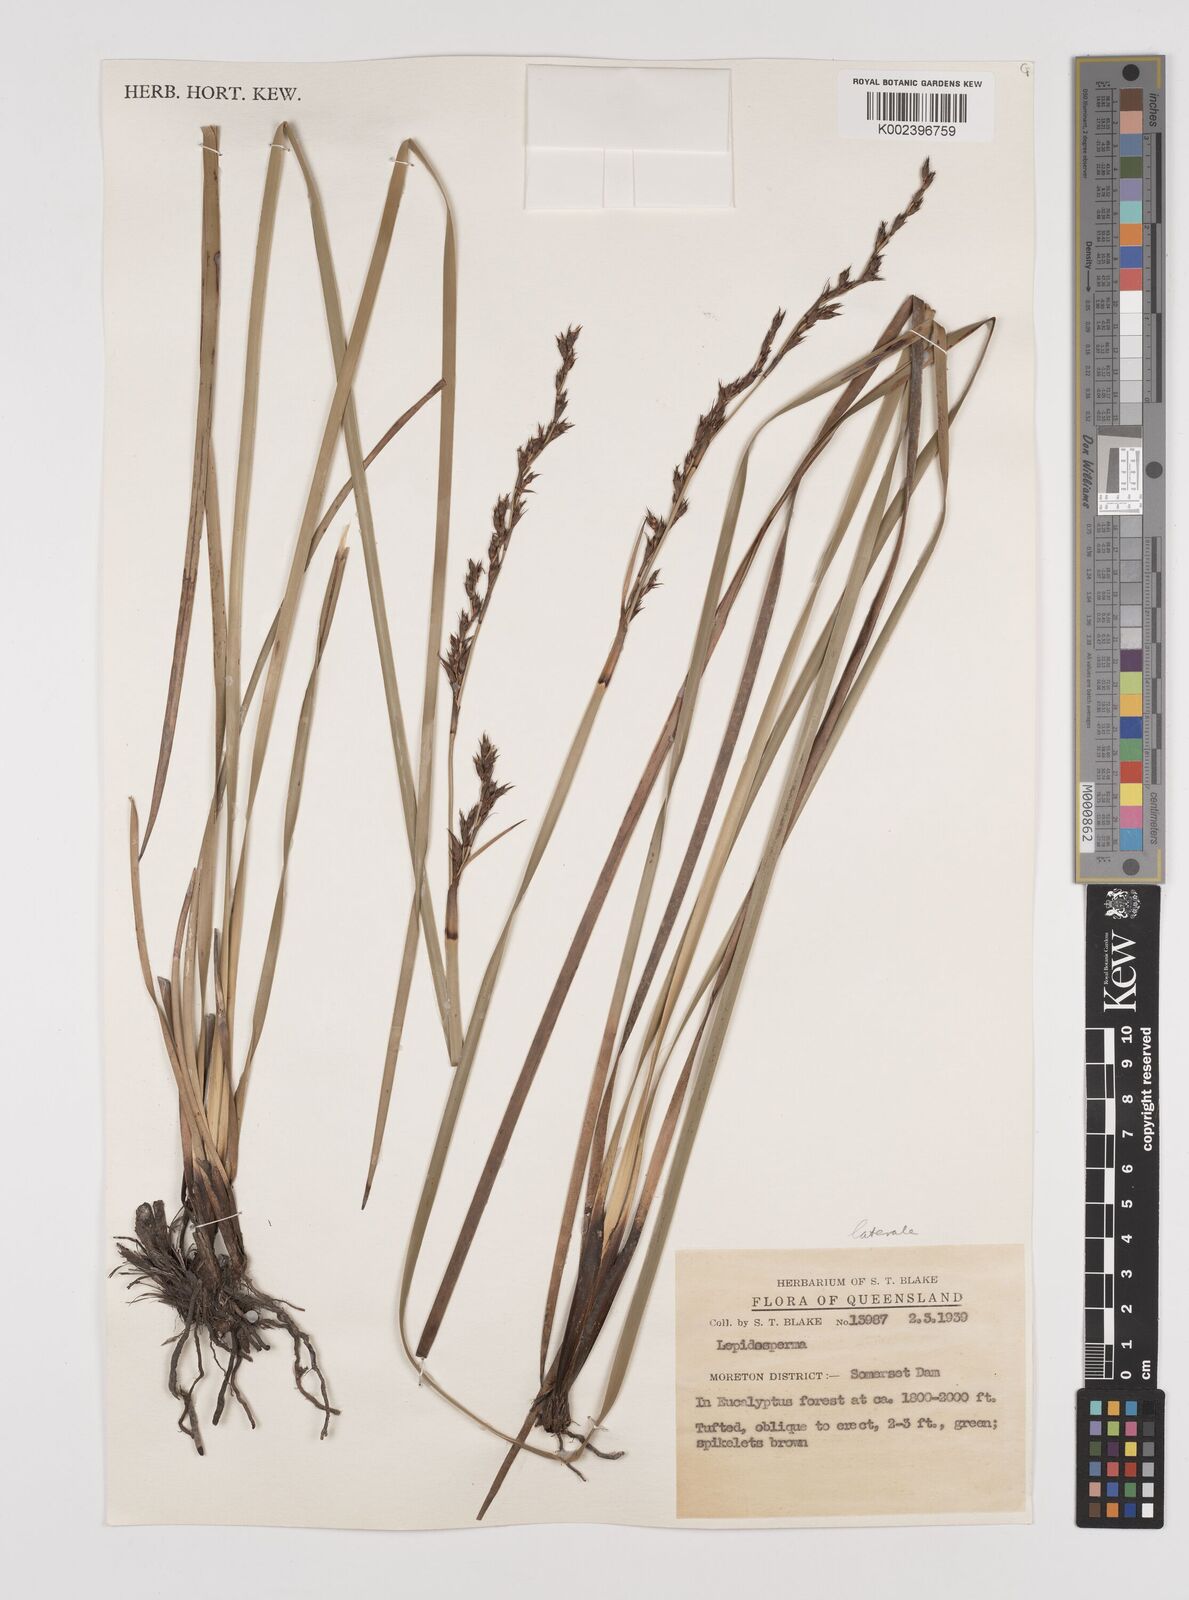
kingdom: Plantae
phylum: Tracheophyta
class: Liliopsida
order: Poales
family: Cyperaceae
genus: Lepidosperma
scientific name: Lepidosperma laterale
